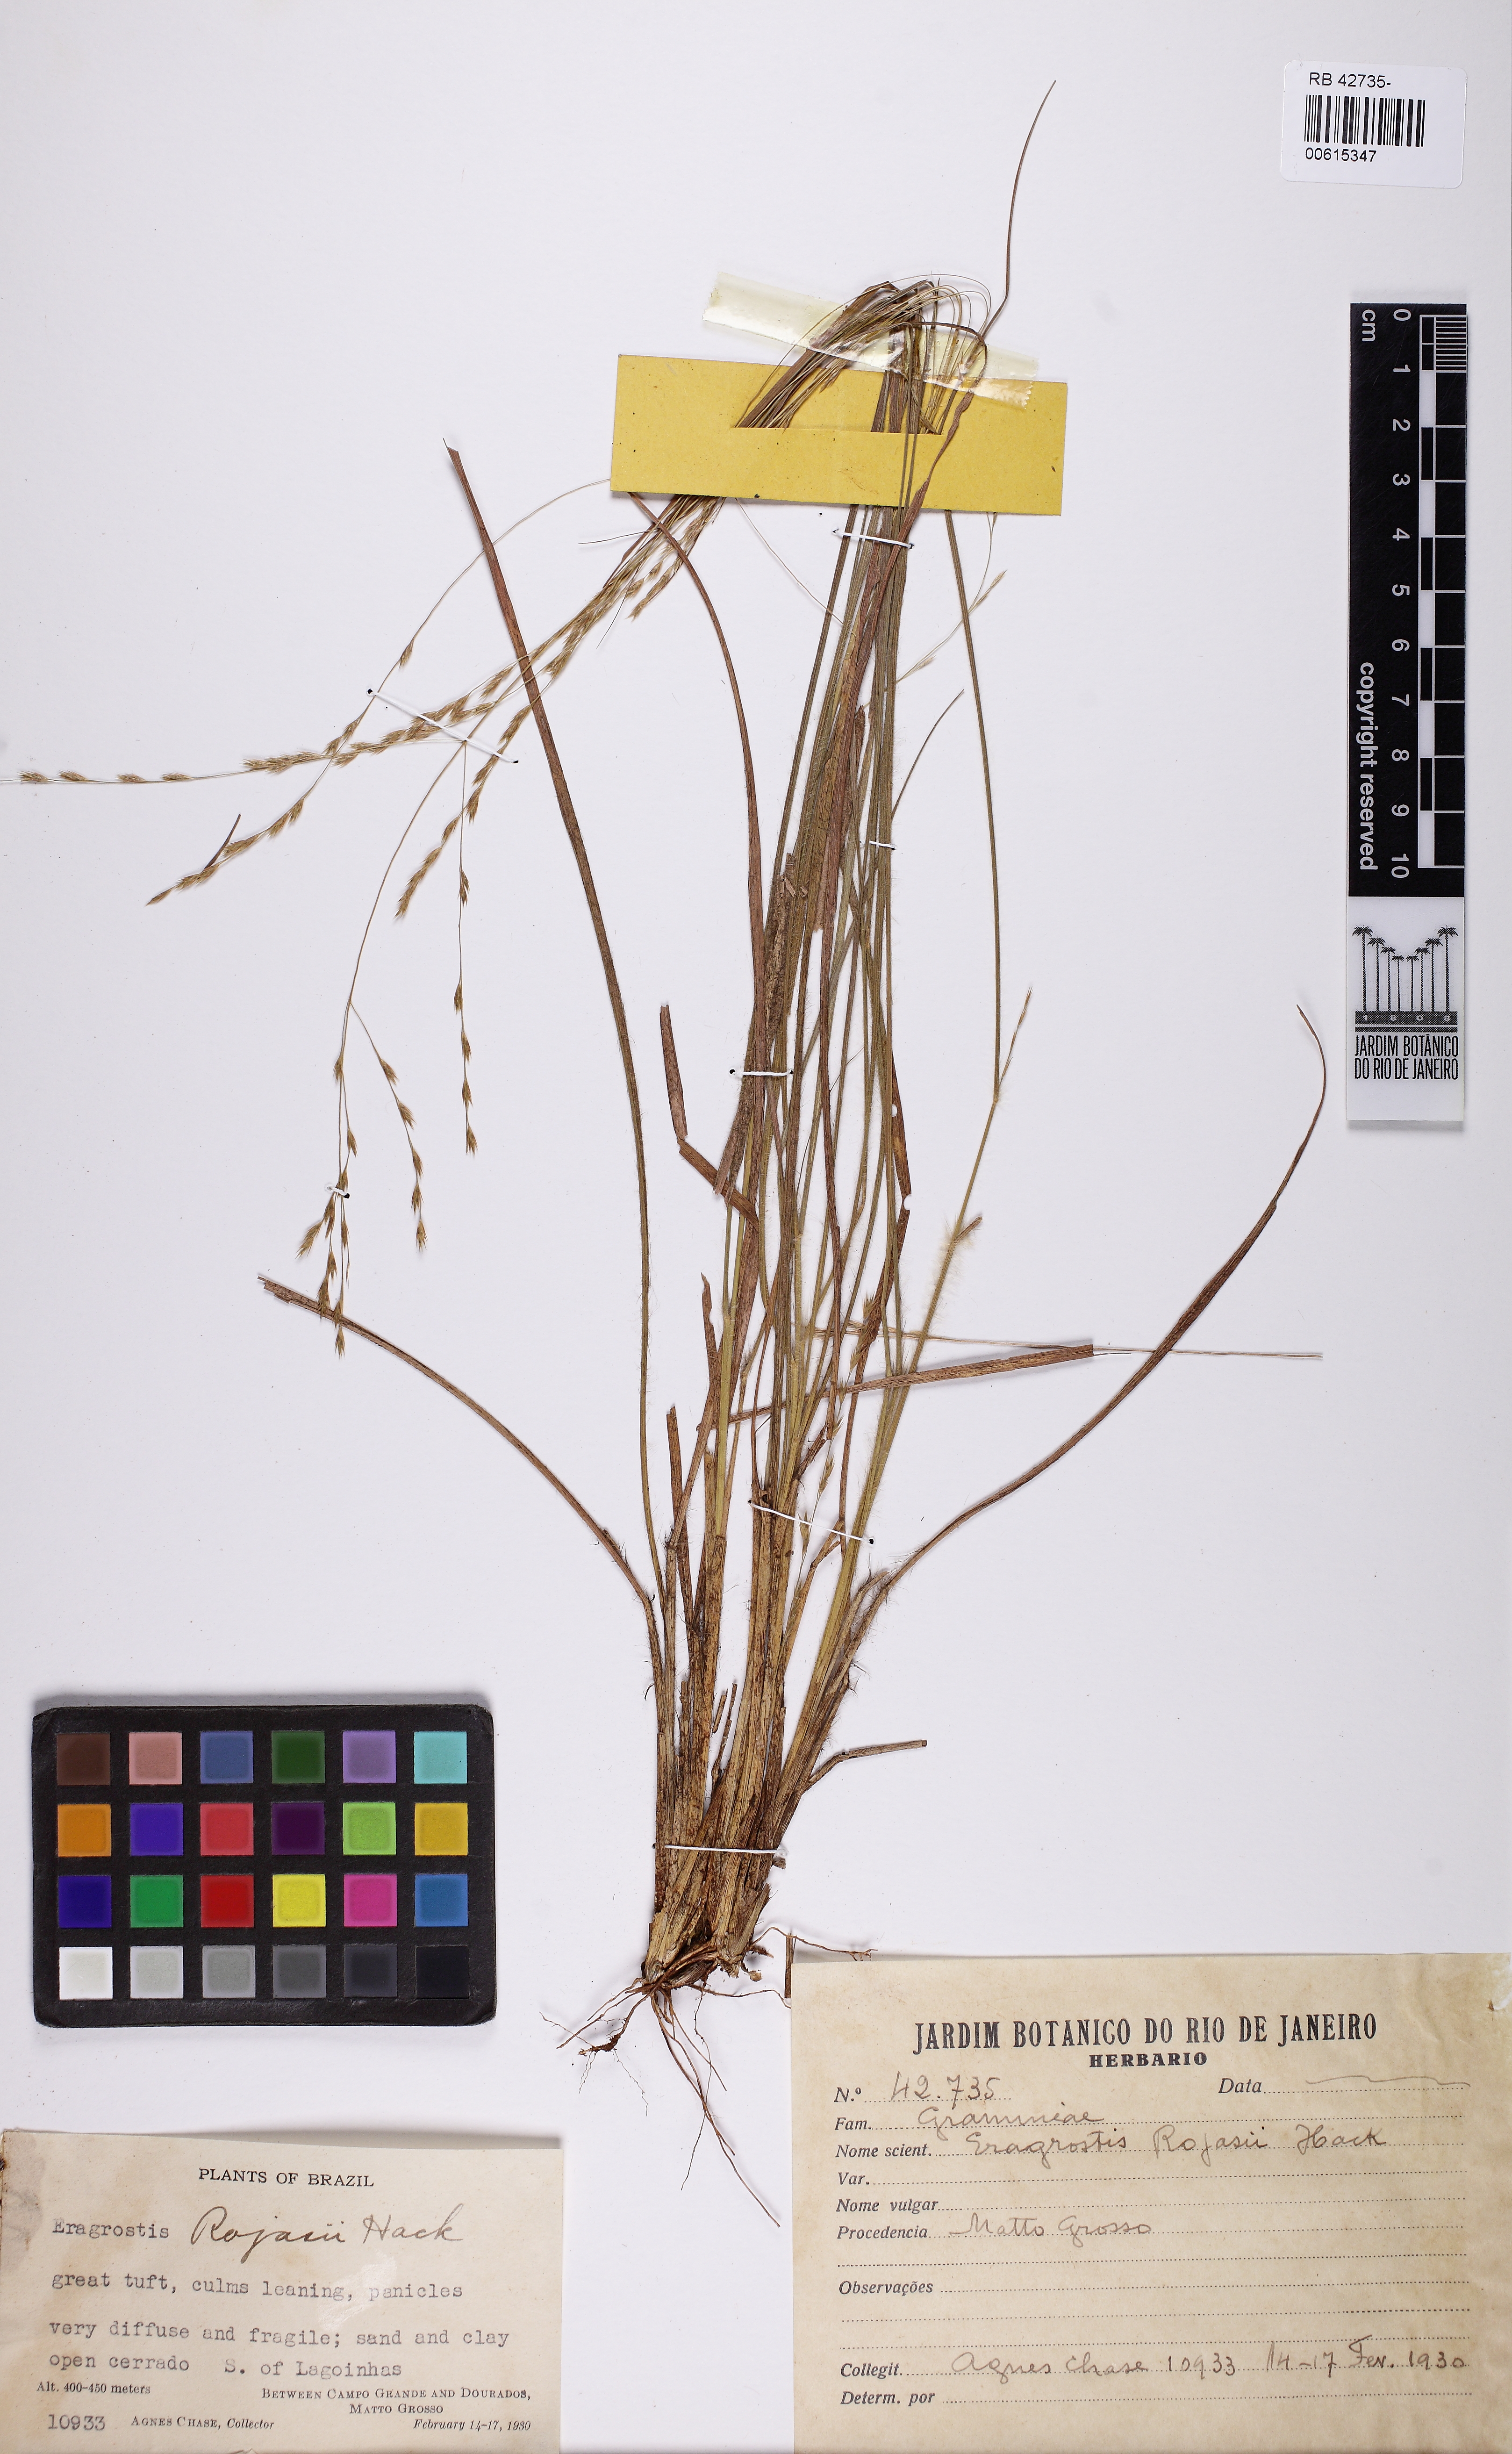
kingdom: Plantae
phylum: Tracheophyta
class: Liliopsida
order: Poales
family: Poaceae
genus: Eragrostis
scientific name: Eragrostis rojasii
